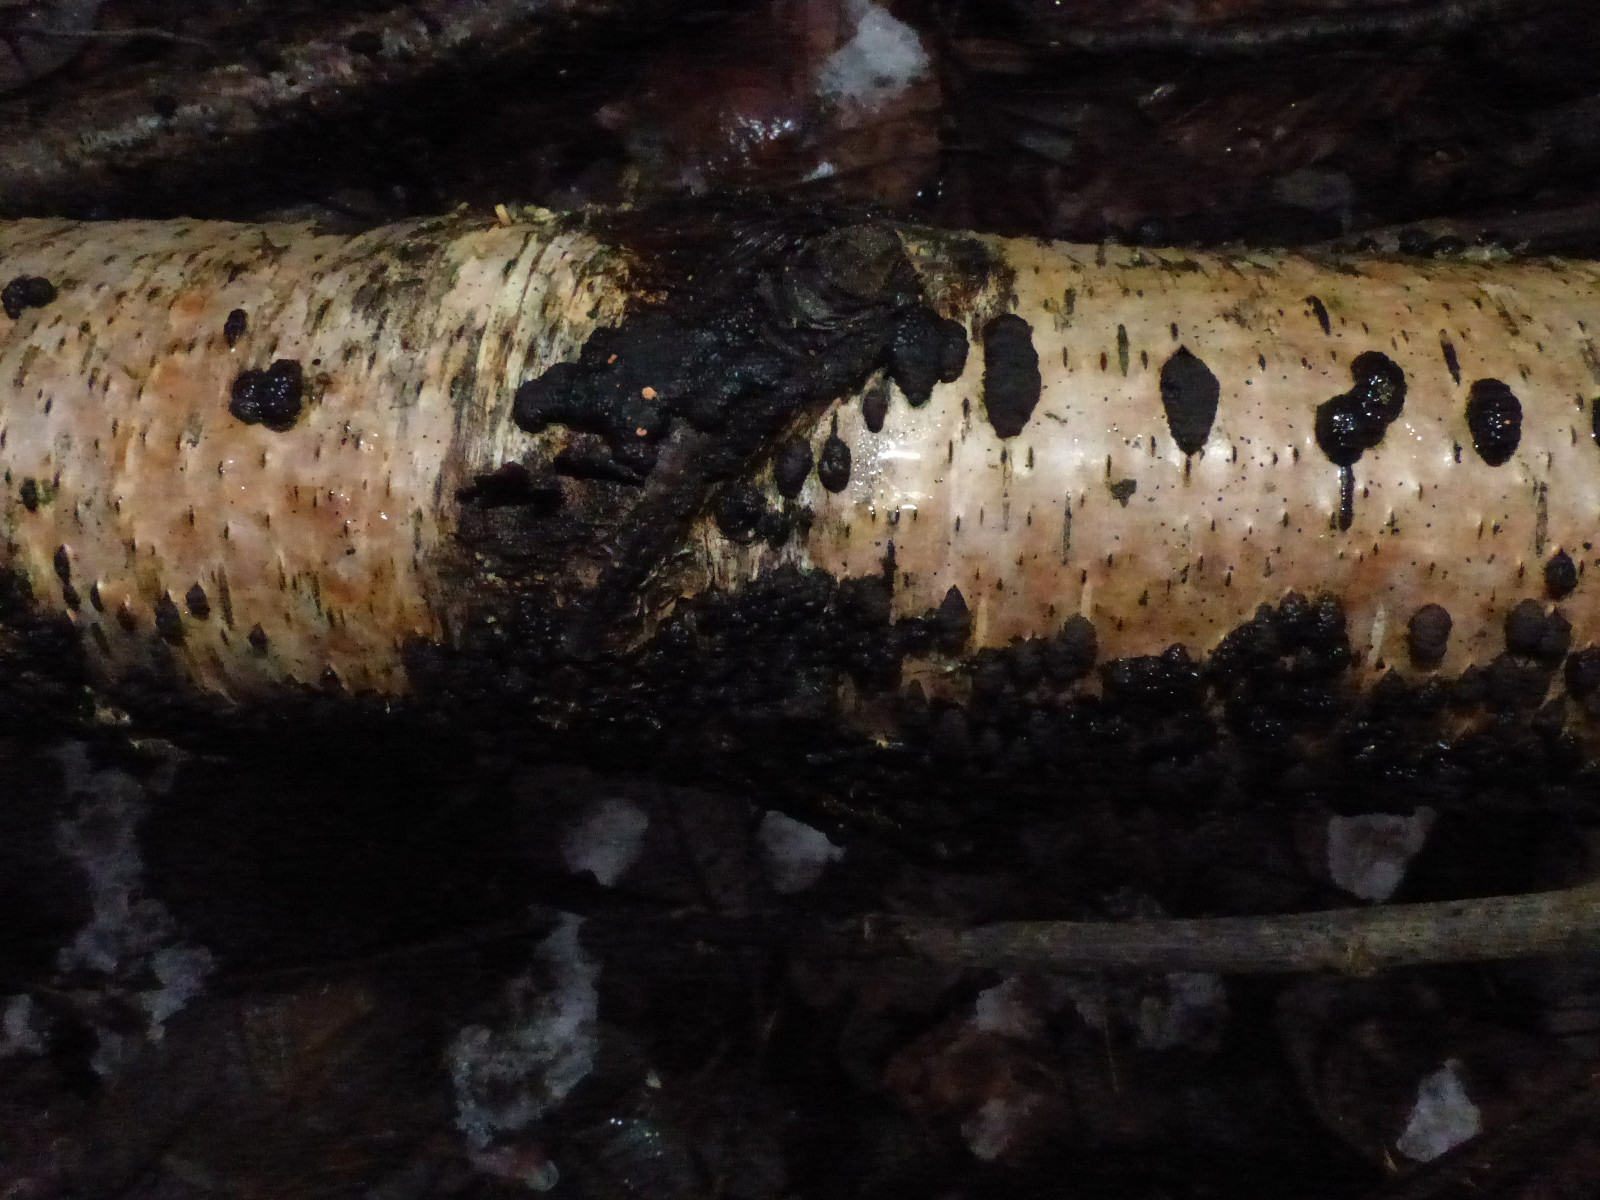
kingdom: Fungi
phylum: Ascomycota
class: Sordariomycetes
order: Xylariales
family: Hypoxylaceae
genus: Jackrogersella
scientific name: Jackrogersella multiformis
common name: foranderlig kulbær
